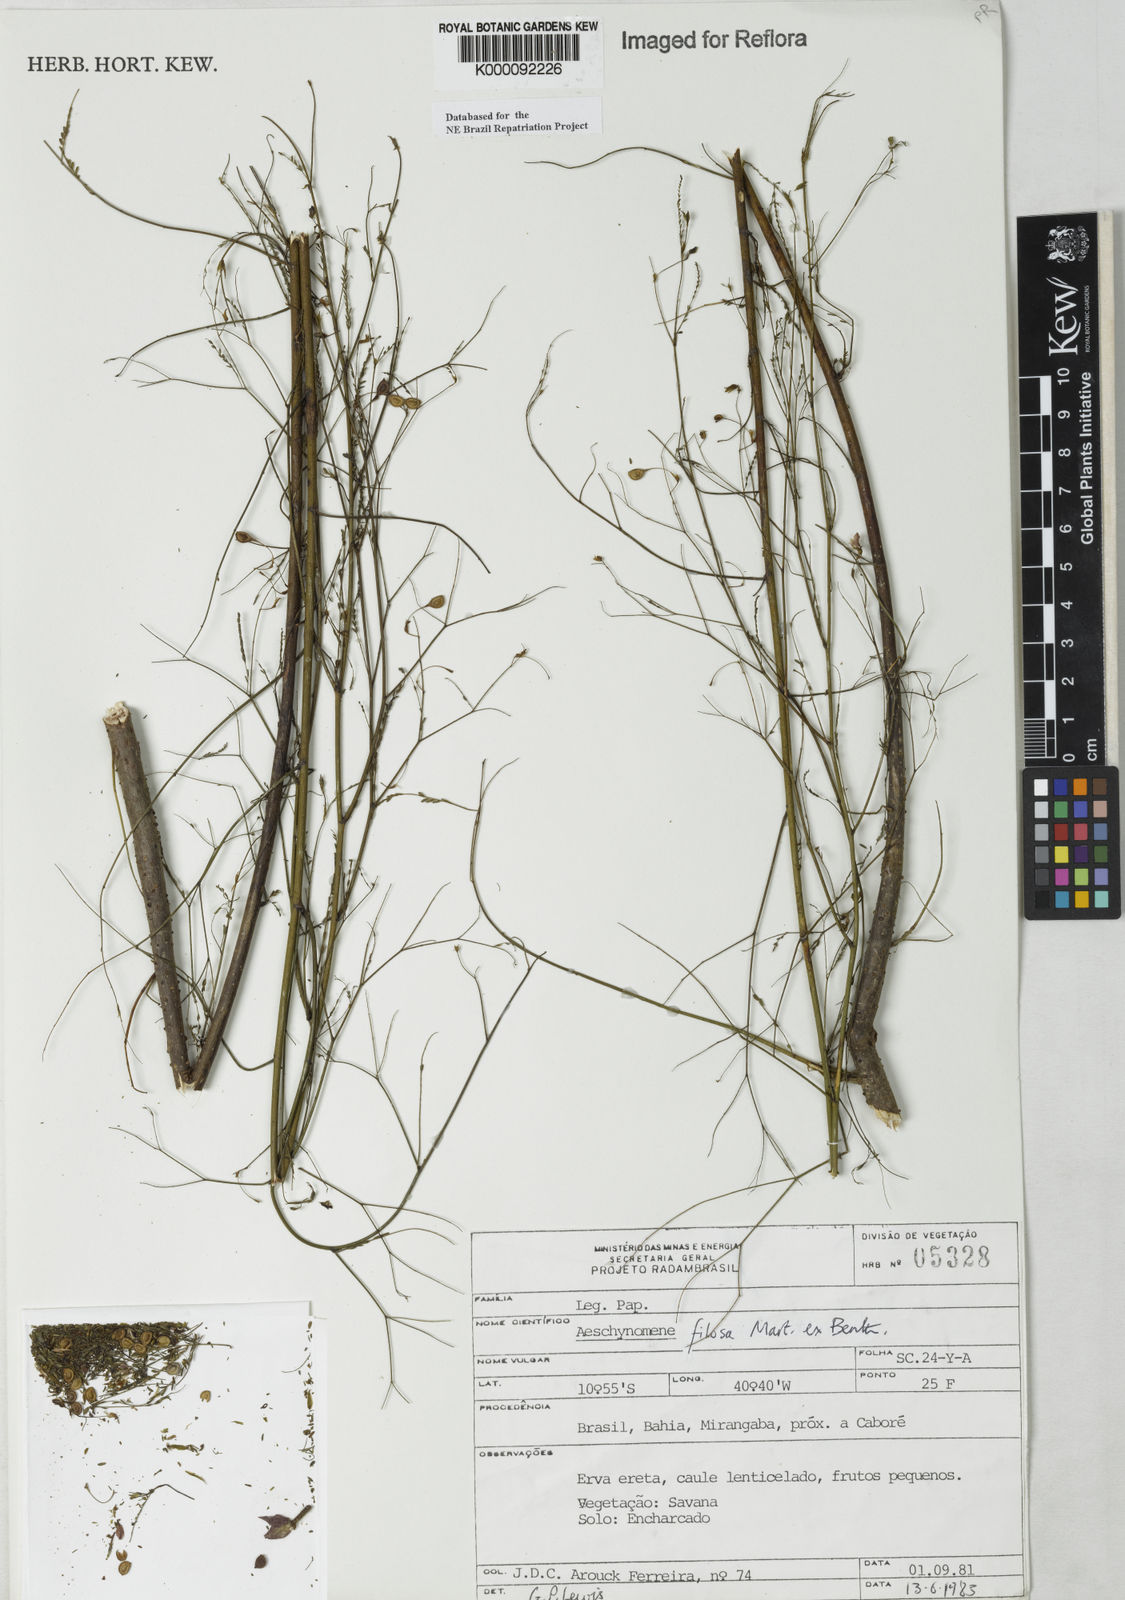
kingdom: Plantae
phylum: Tracheophyta
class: Magnoliopsida
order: Fabales
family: Fabaceae
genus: Aeschynomene
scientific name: Aeschynomene filosa
